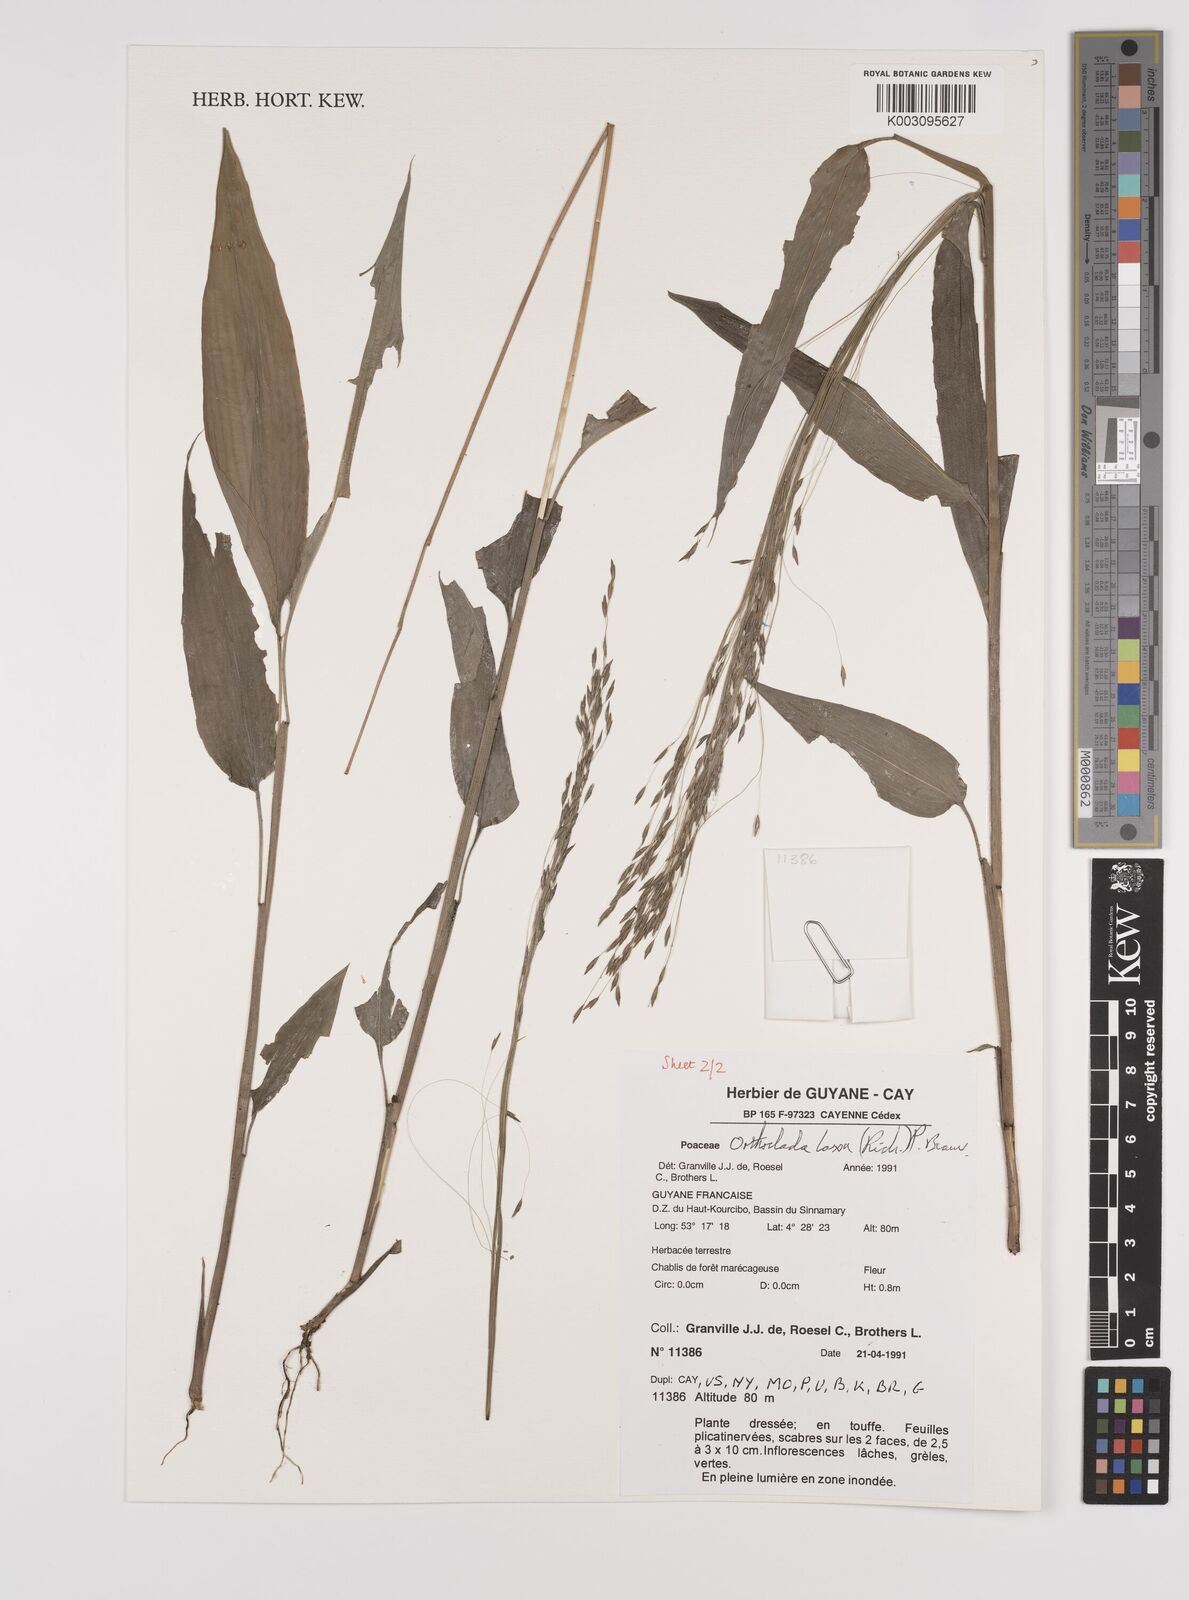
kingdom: Plantae
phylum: Tracheophyta
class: Liliopsida
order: Poales
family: Poaceae
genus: Orthoclada
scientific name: Orthoclada laxa
